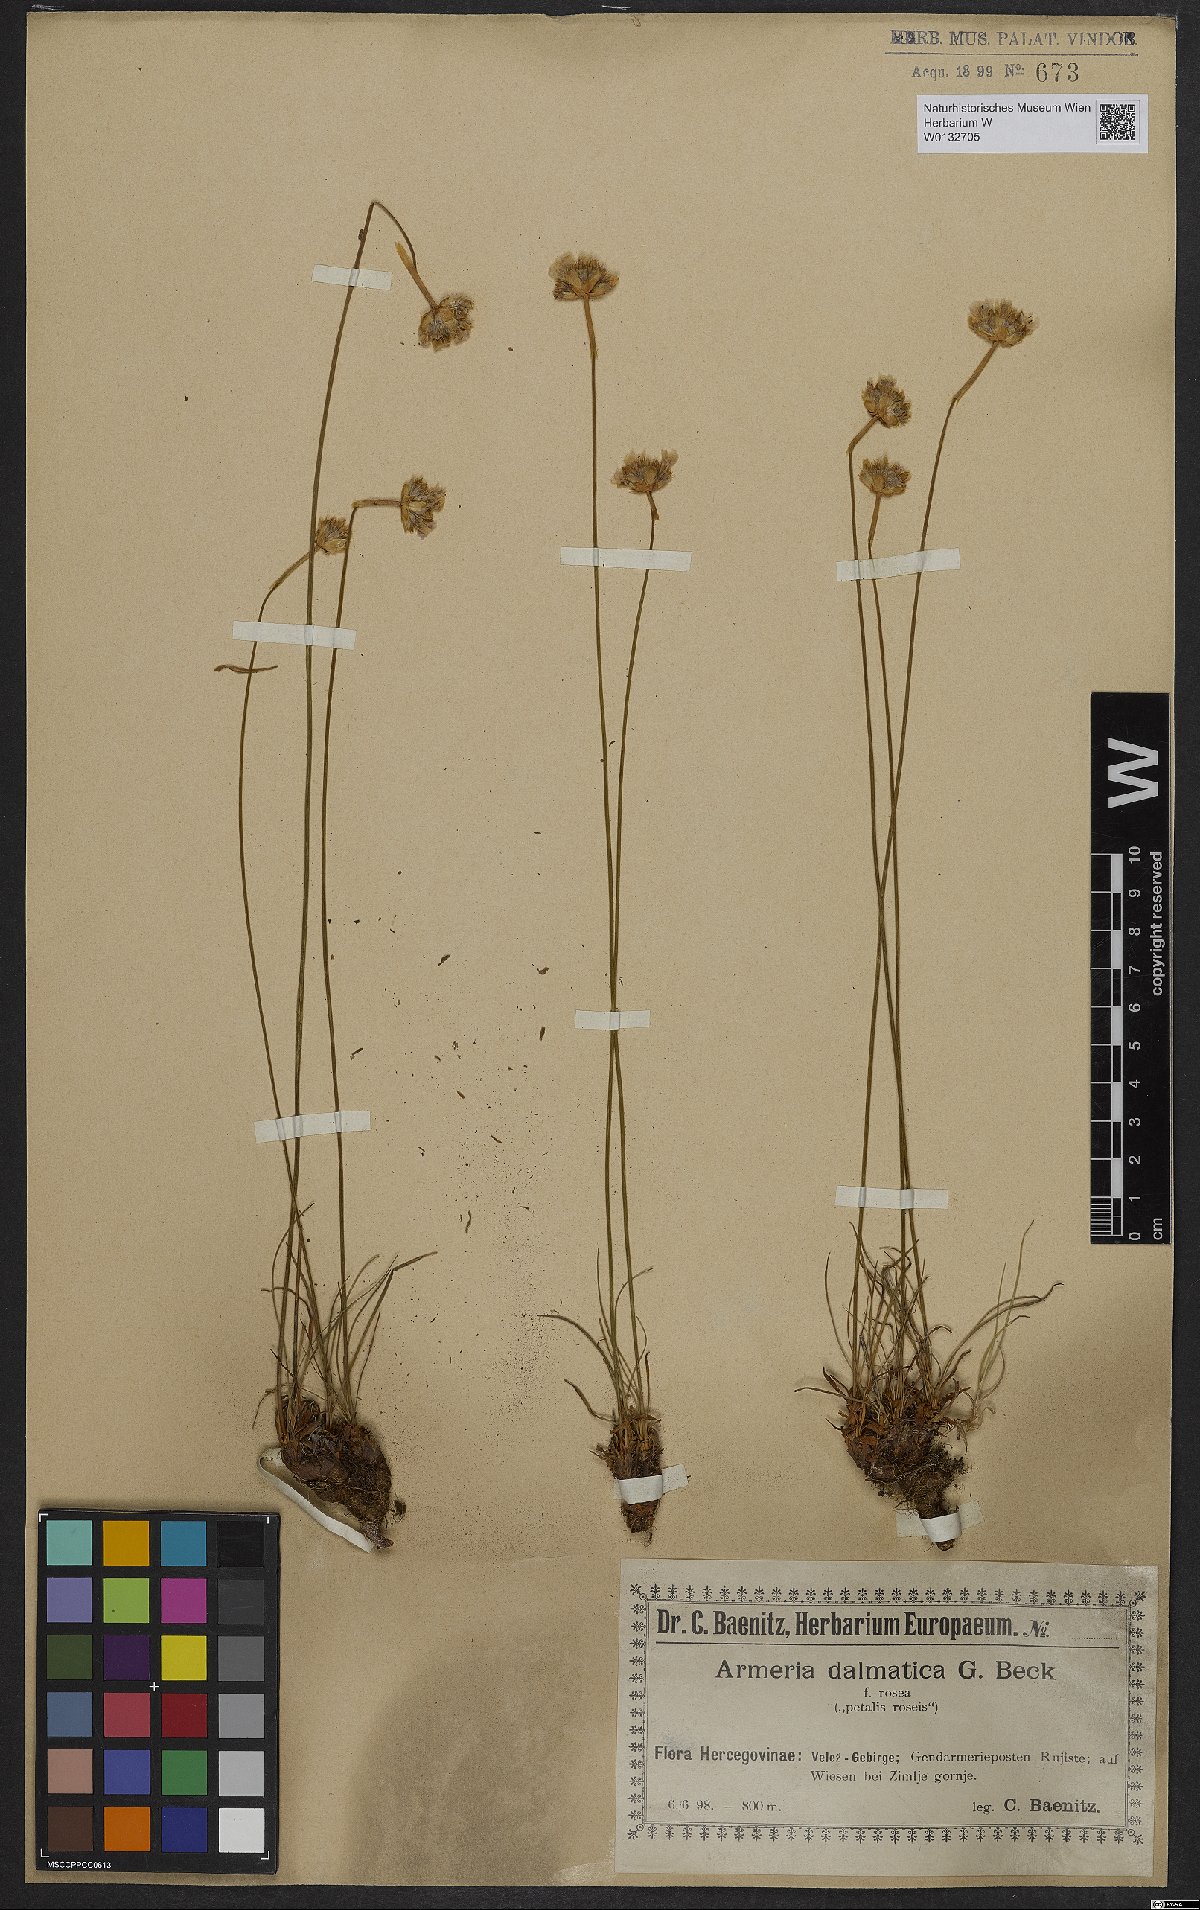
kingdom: Plantae
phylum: Tracheophyta
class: Magnoliopsida
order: Caryophyllales
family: Plumbaginaceae
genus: Armeria
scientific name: Armeria canescens
